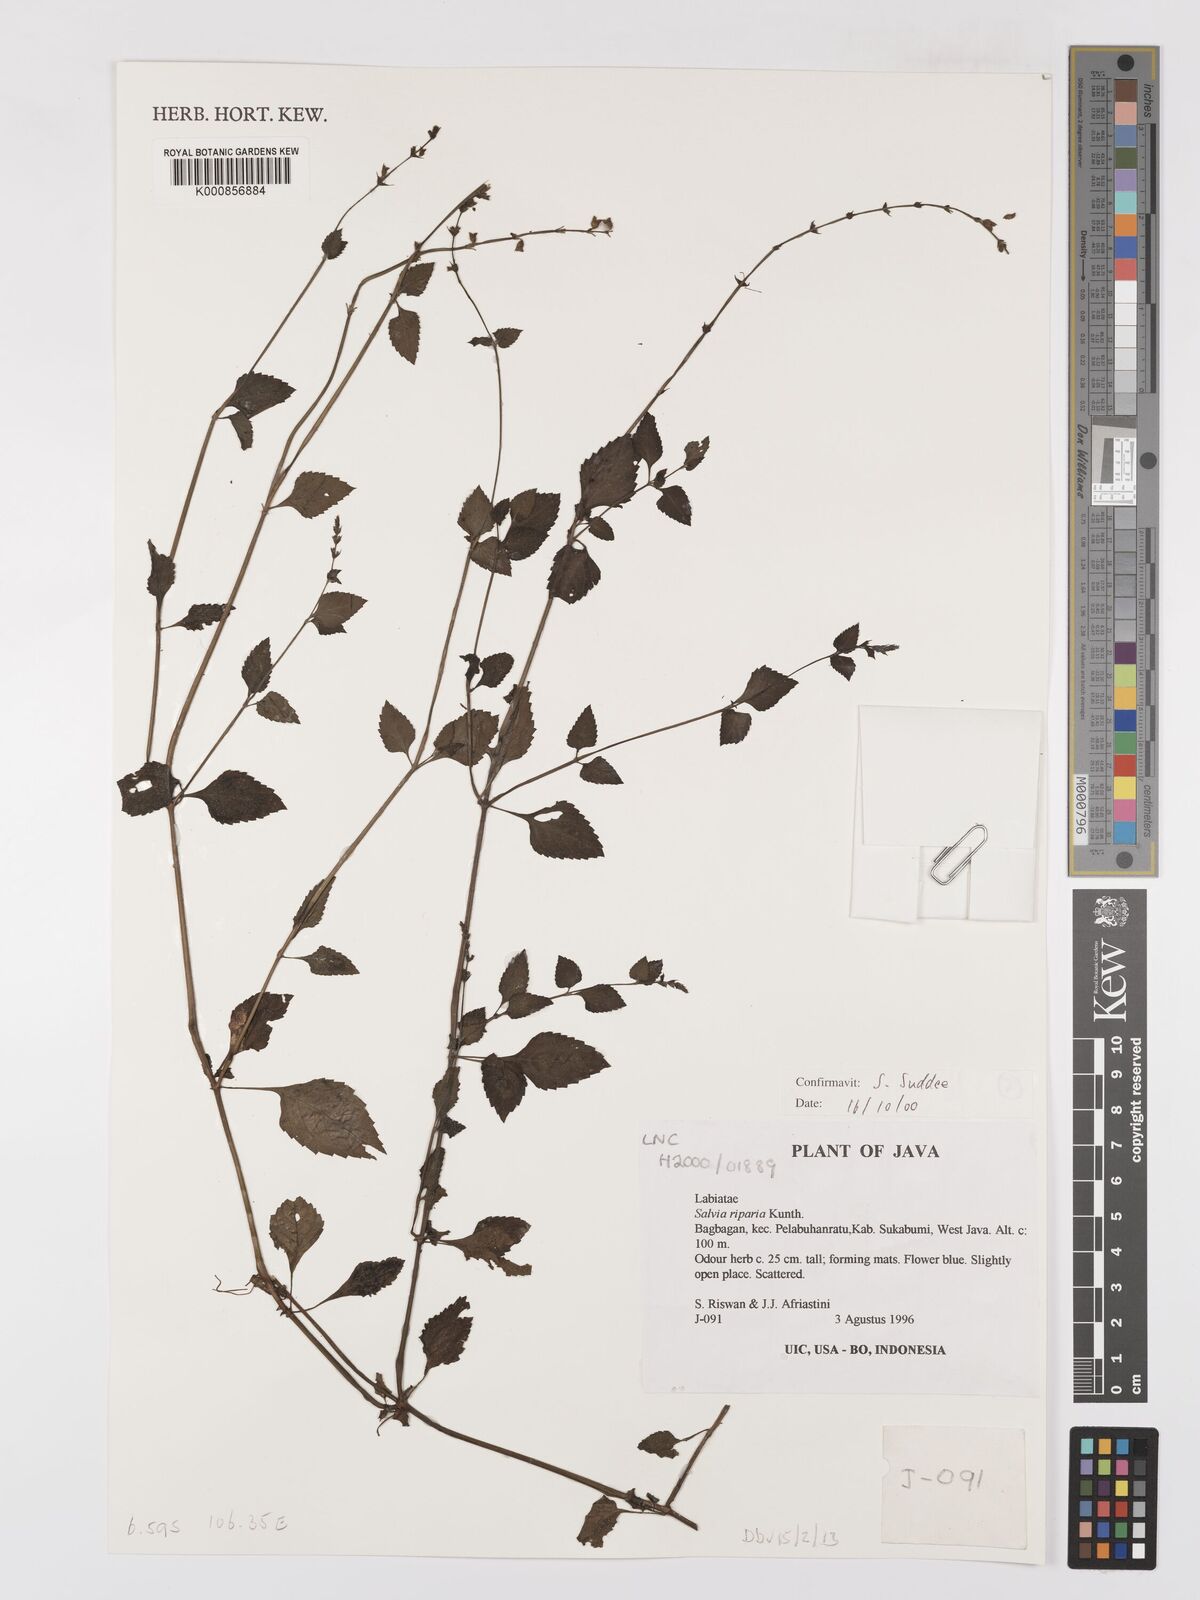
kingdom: Plantae
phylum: Tracheophyta
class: Magnoliopsida
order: Lamiales
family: Lamiaceae
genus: Salvia
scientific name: Salvia misella
